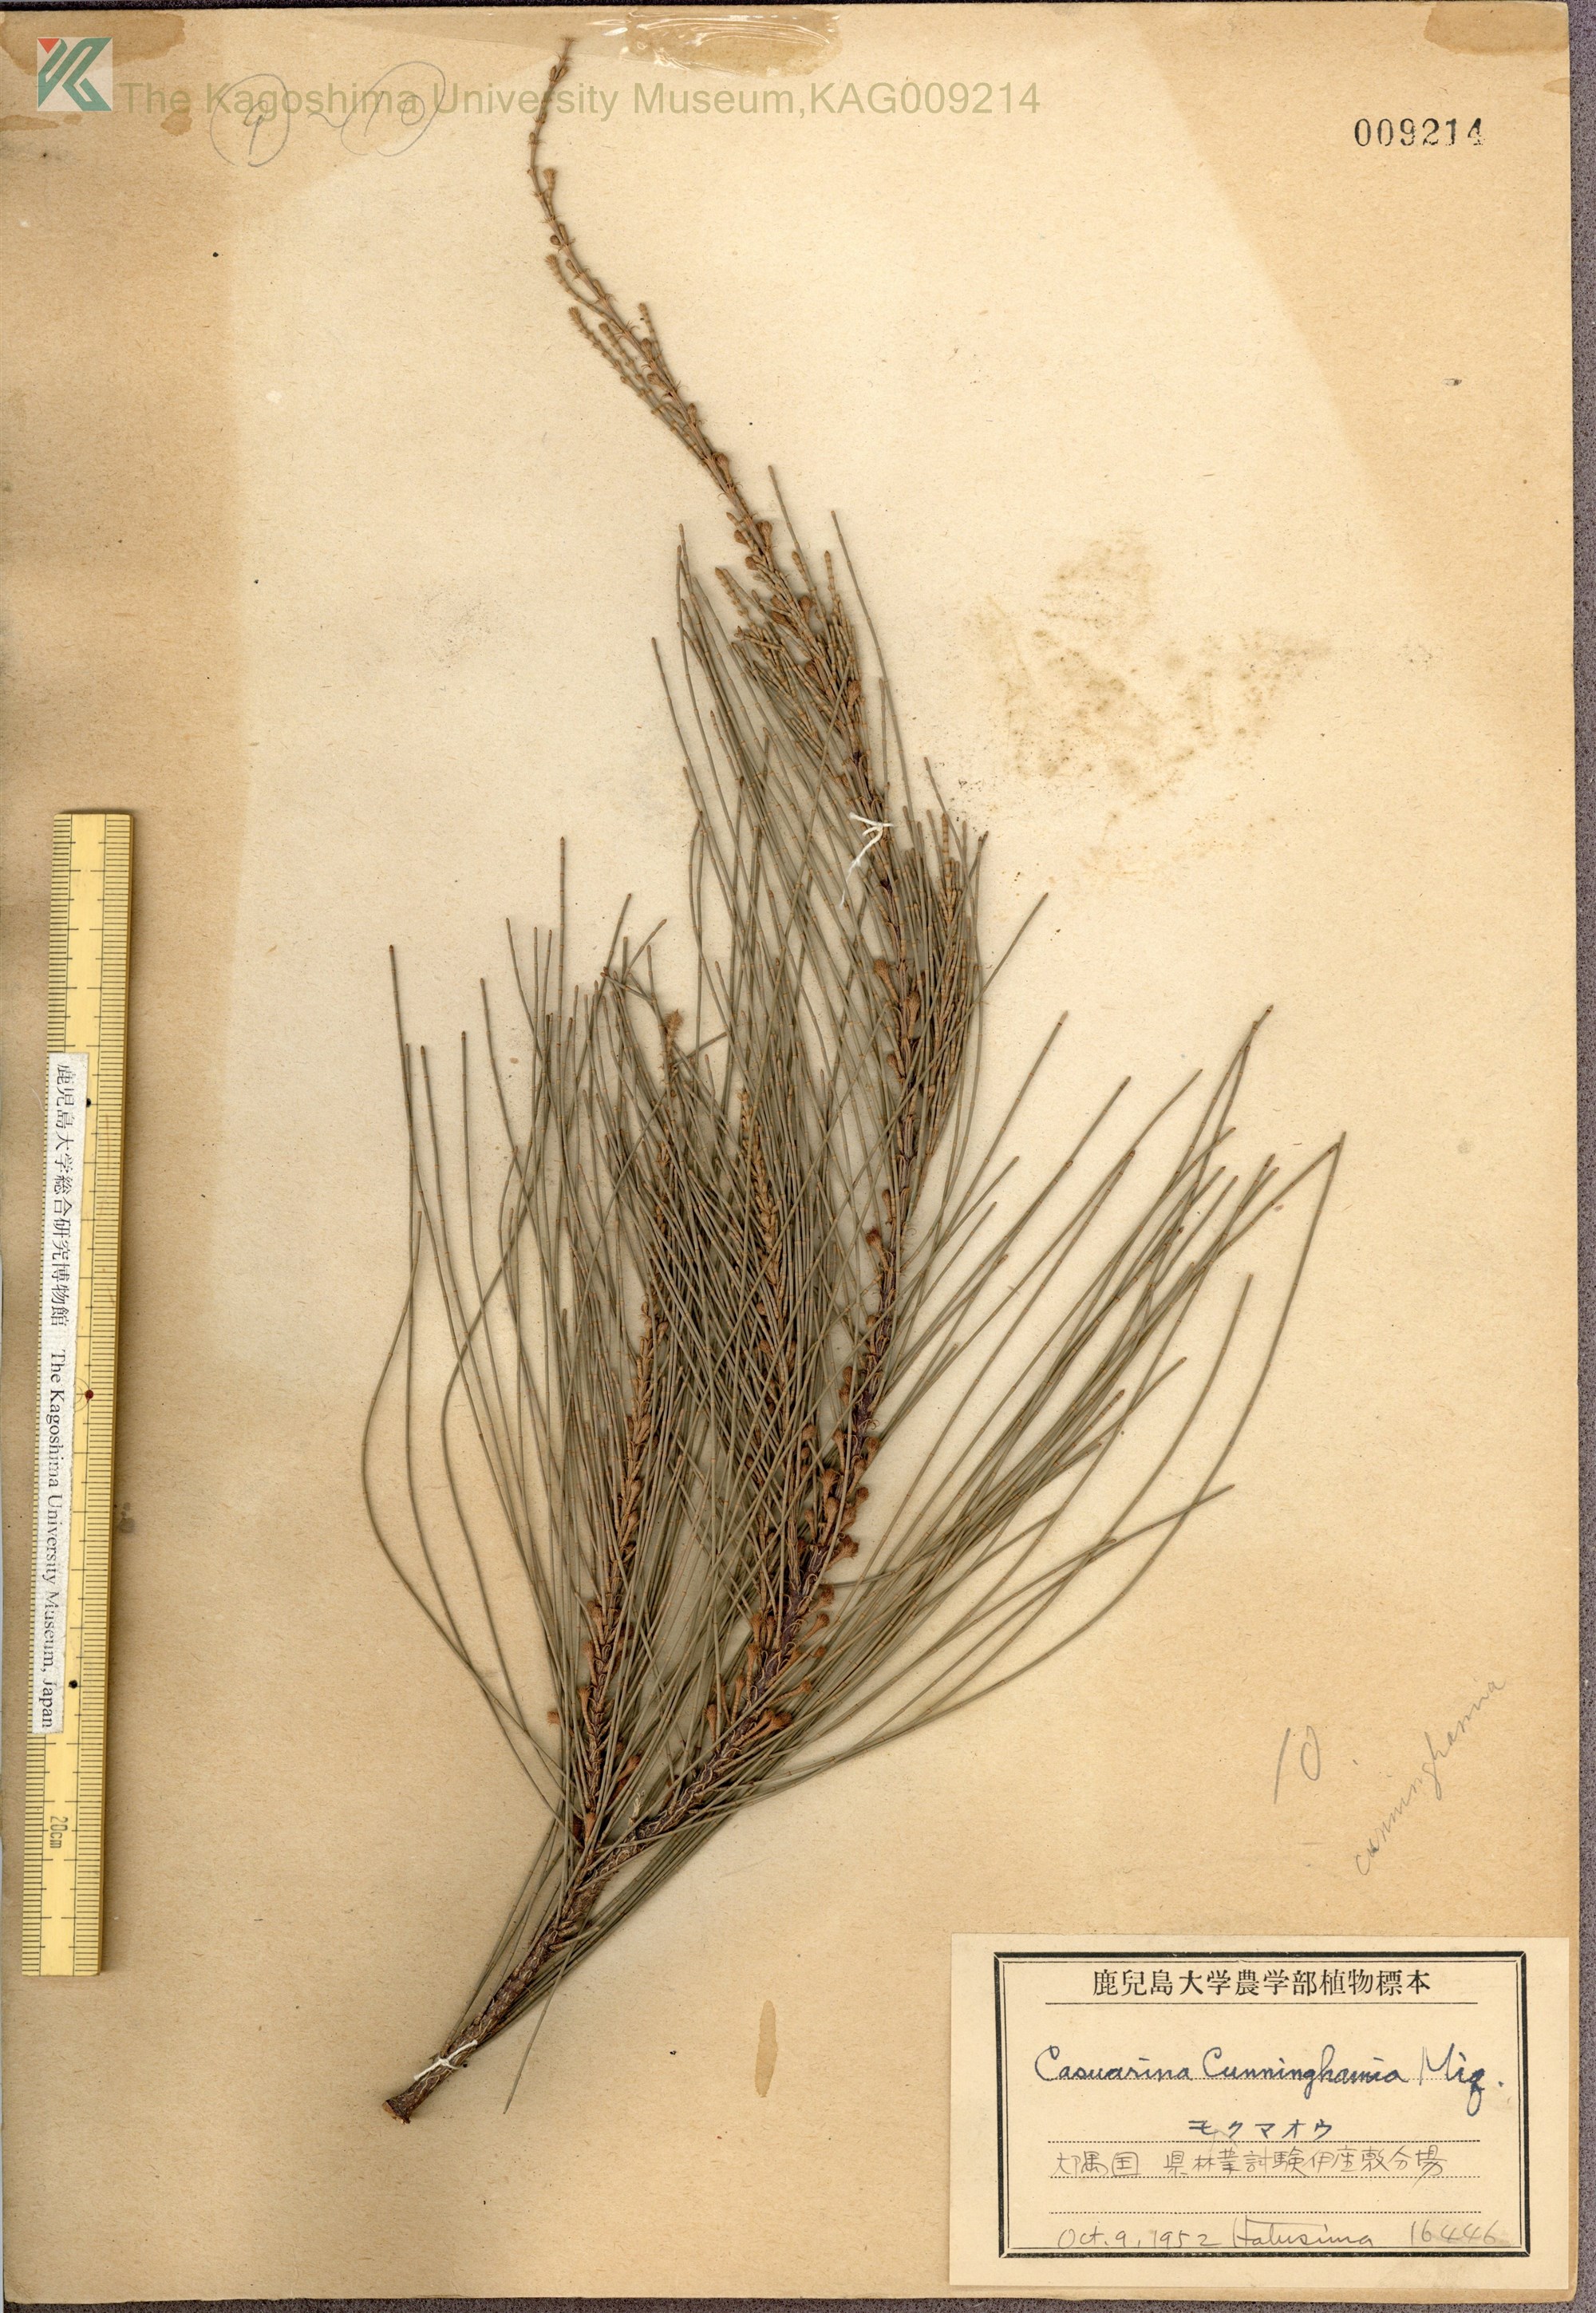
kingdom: Plantae
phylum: Tracheophyta
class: Magnoliopsida
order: Fagales
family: Casuarinaceae
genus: Casuarina
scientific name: Casuarina cunninghamiana
